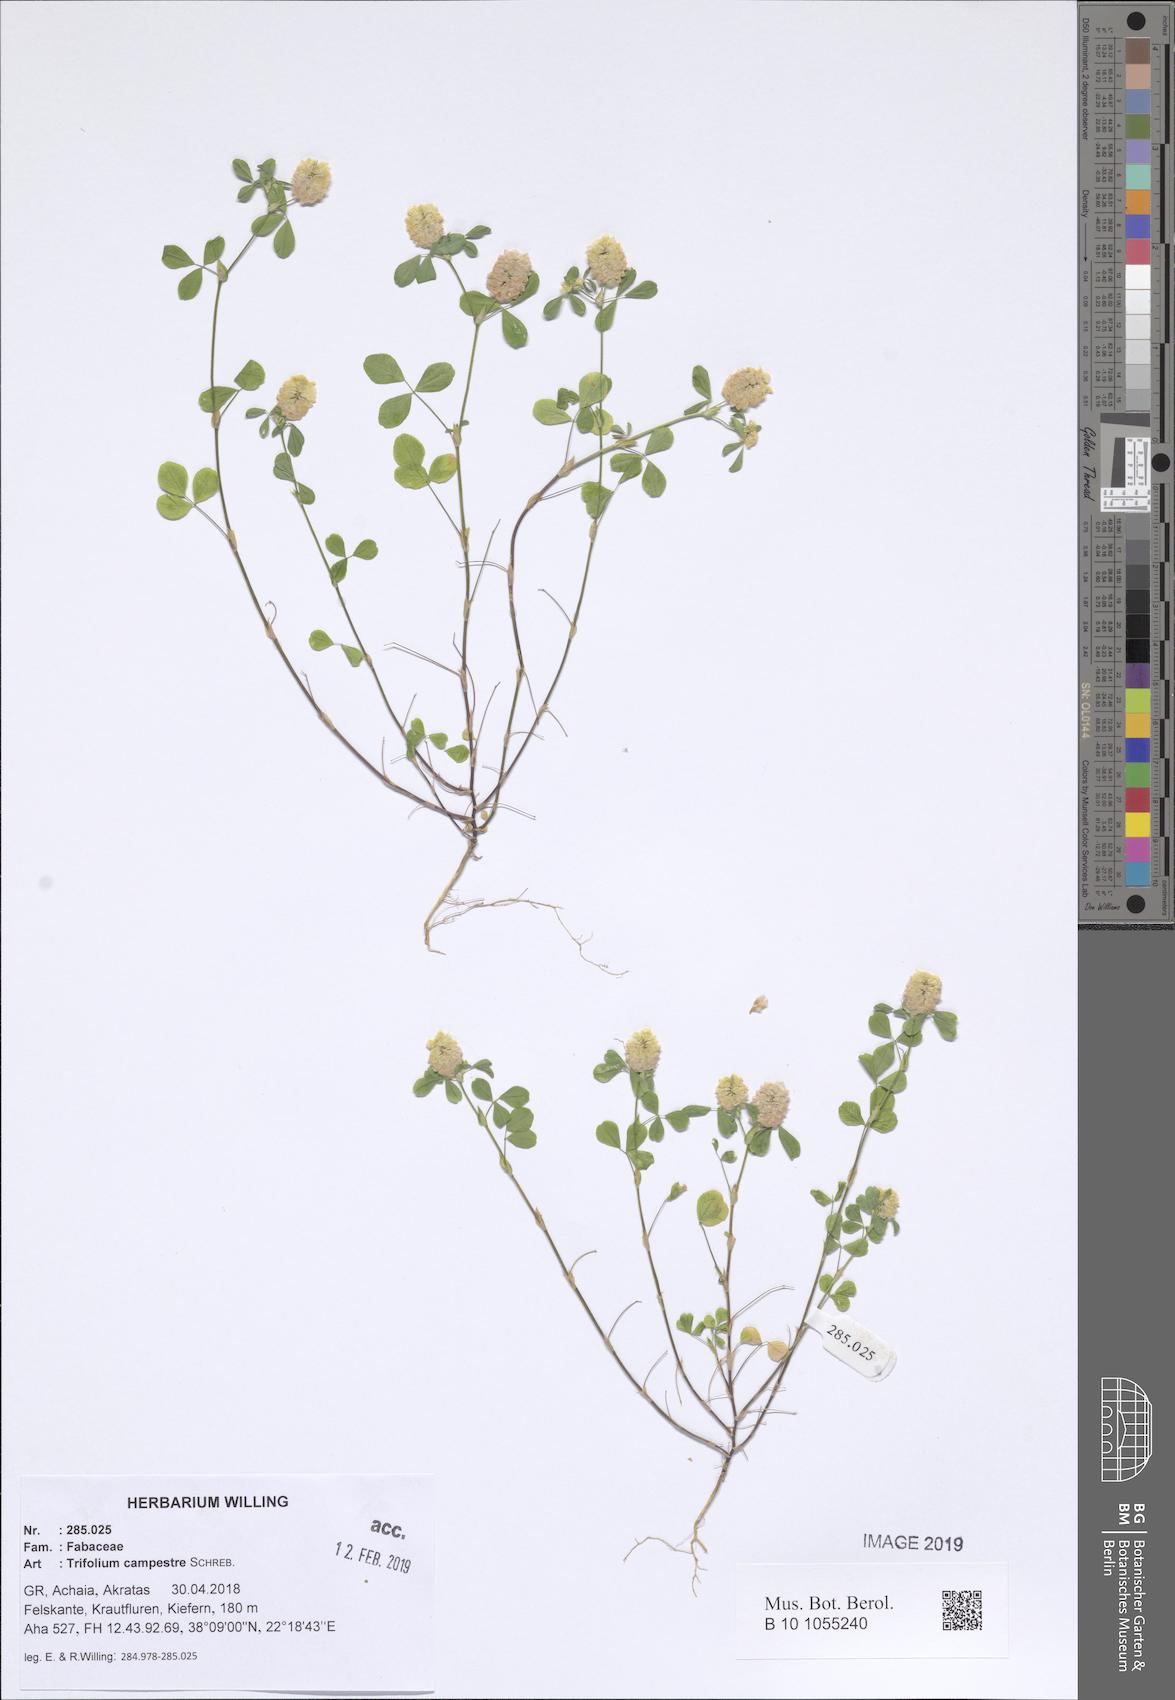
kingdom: Plantae
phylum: Tracheophyta
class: Magnoliopsida
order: Fabales
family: Fabaceae
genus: Trifolium
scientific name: Trifolium campestre
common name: Field clover
